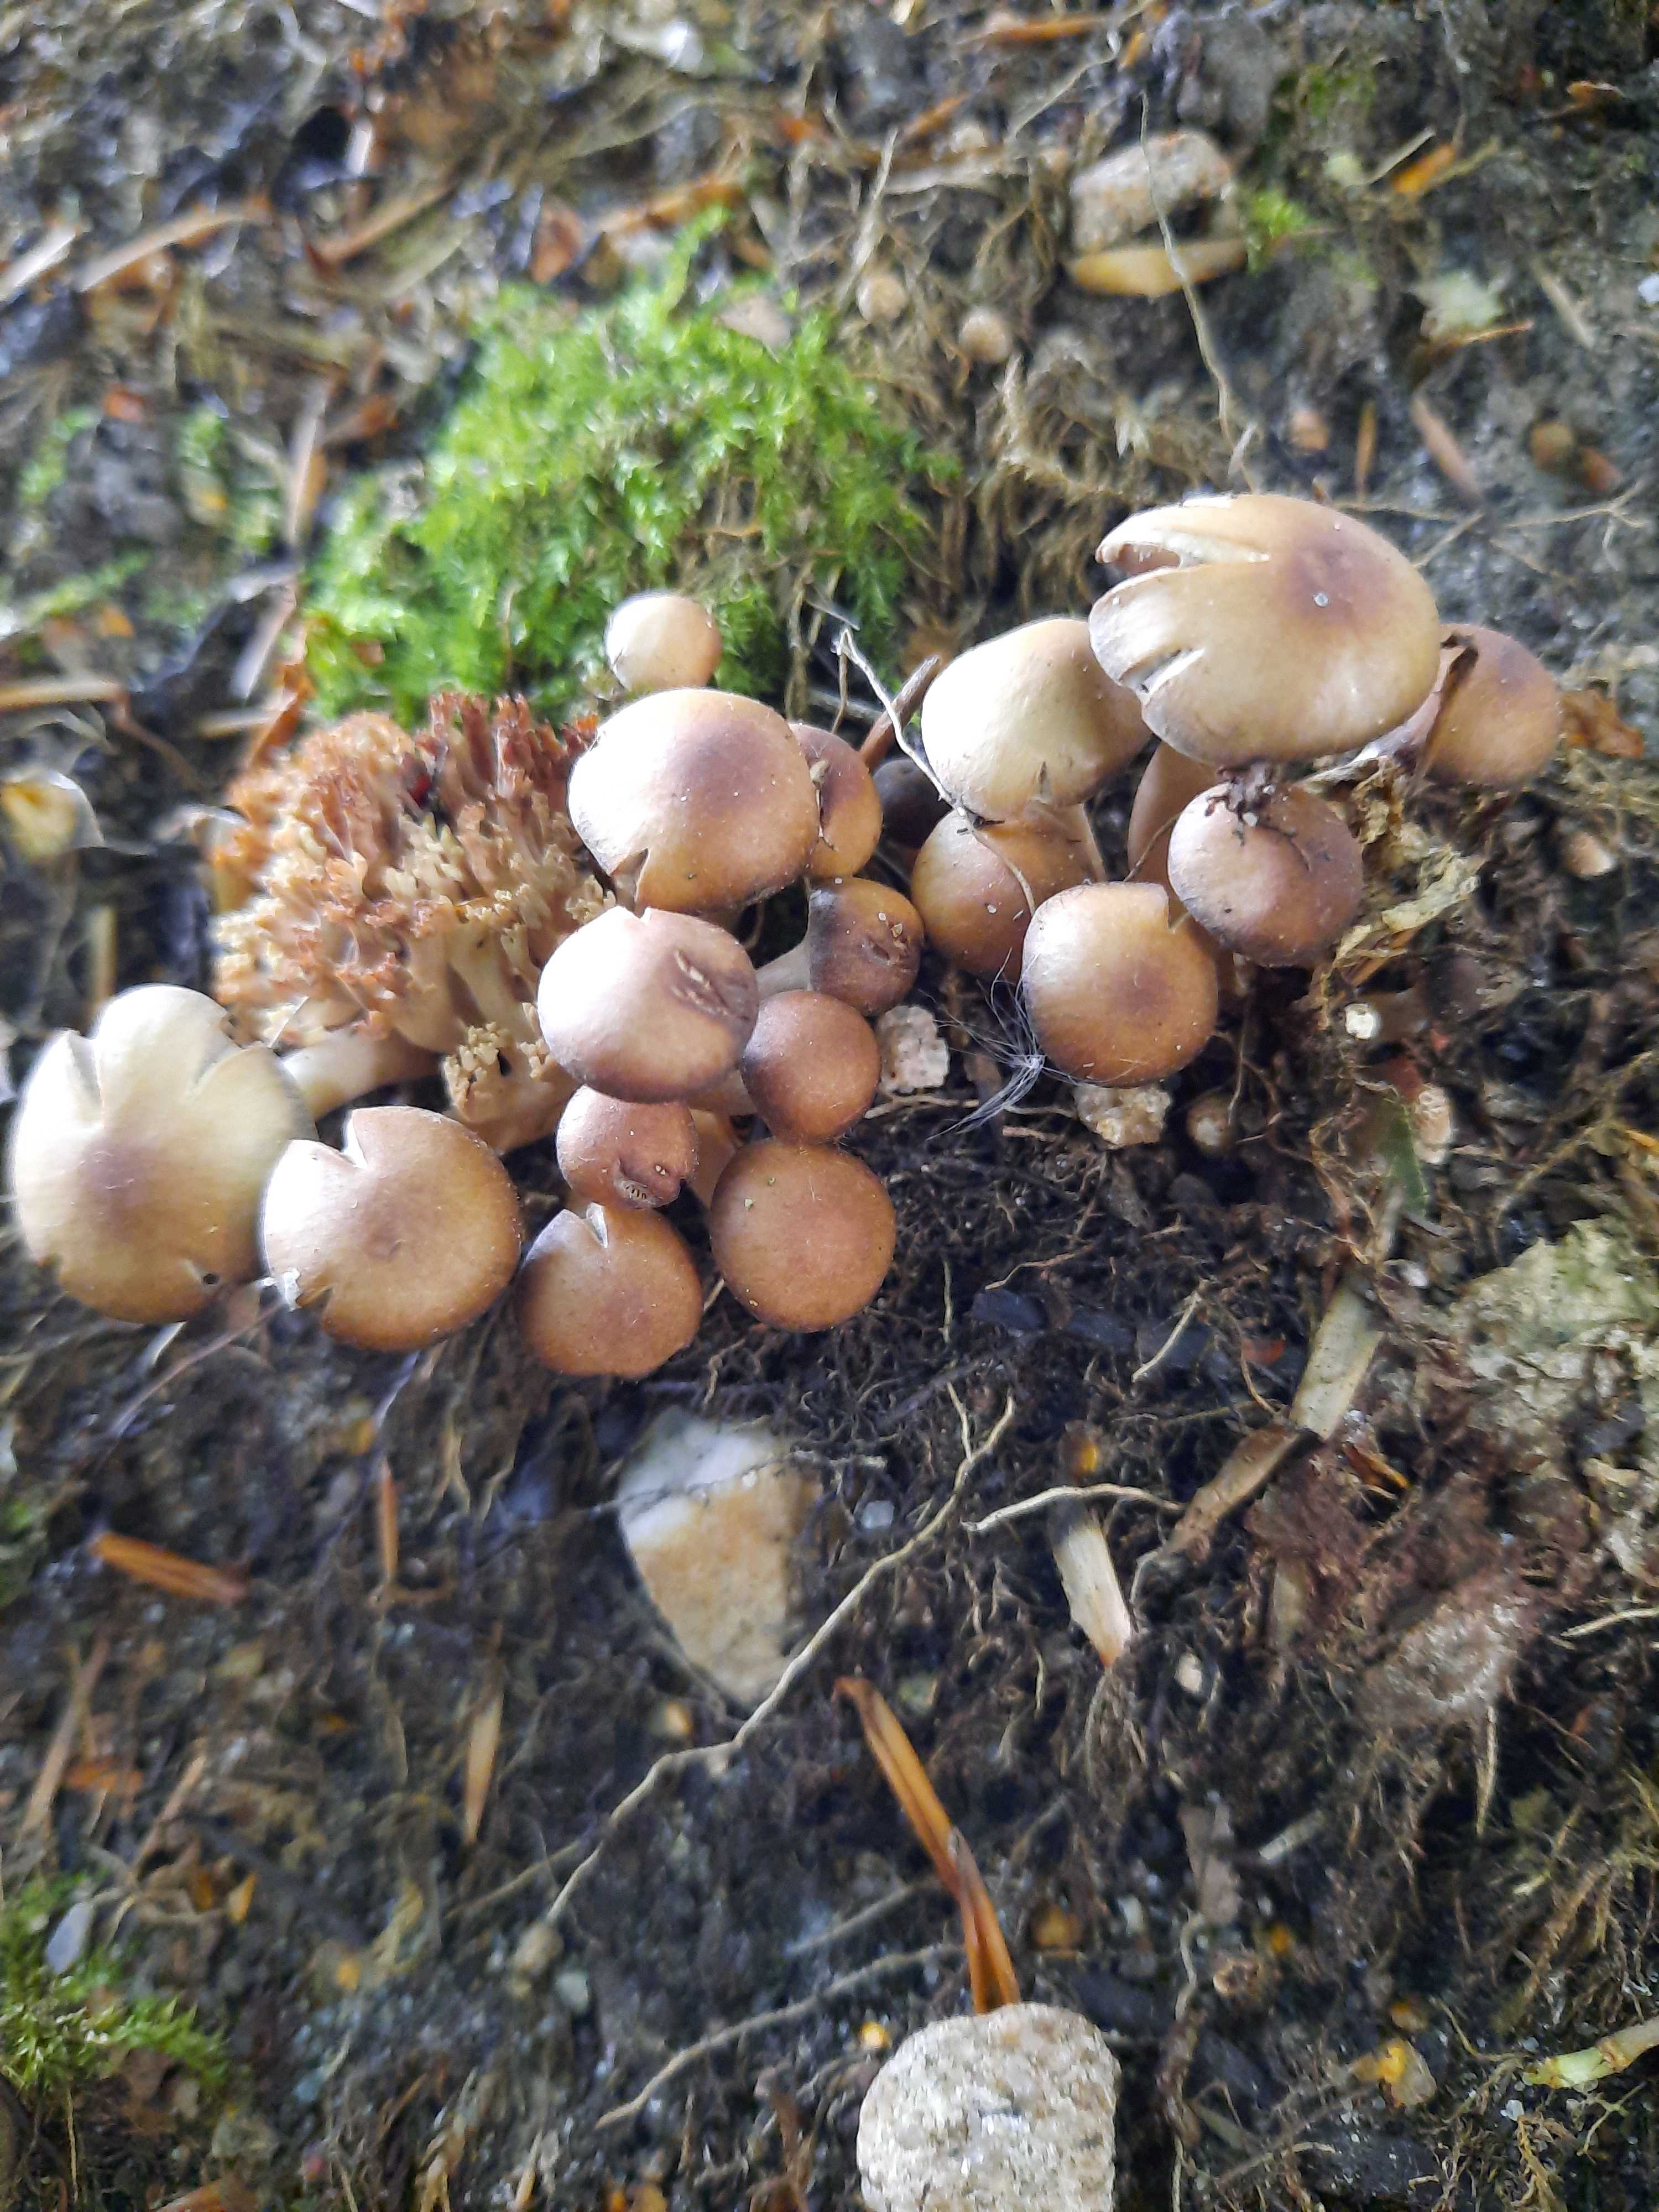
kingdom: Fungi
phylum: Basidiomycota
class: Agaricomycetes
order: Agaricales
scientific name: Agaricales
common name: champignonordenen
